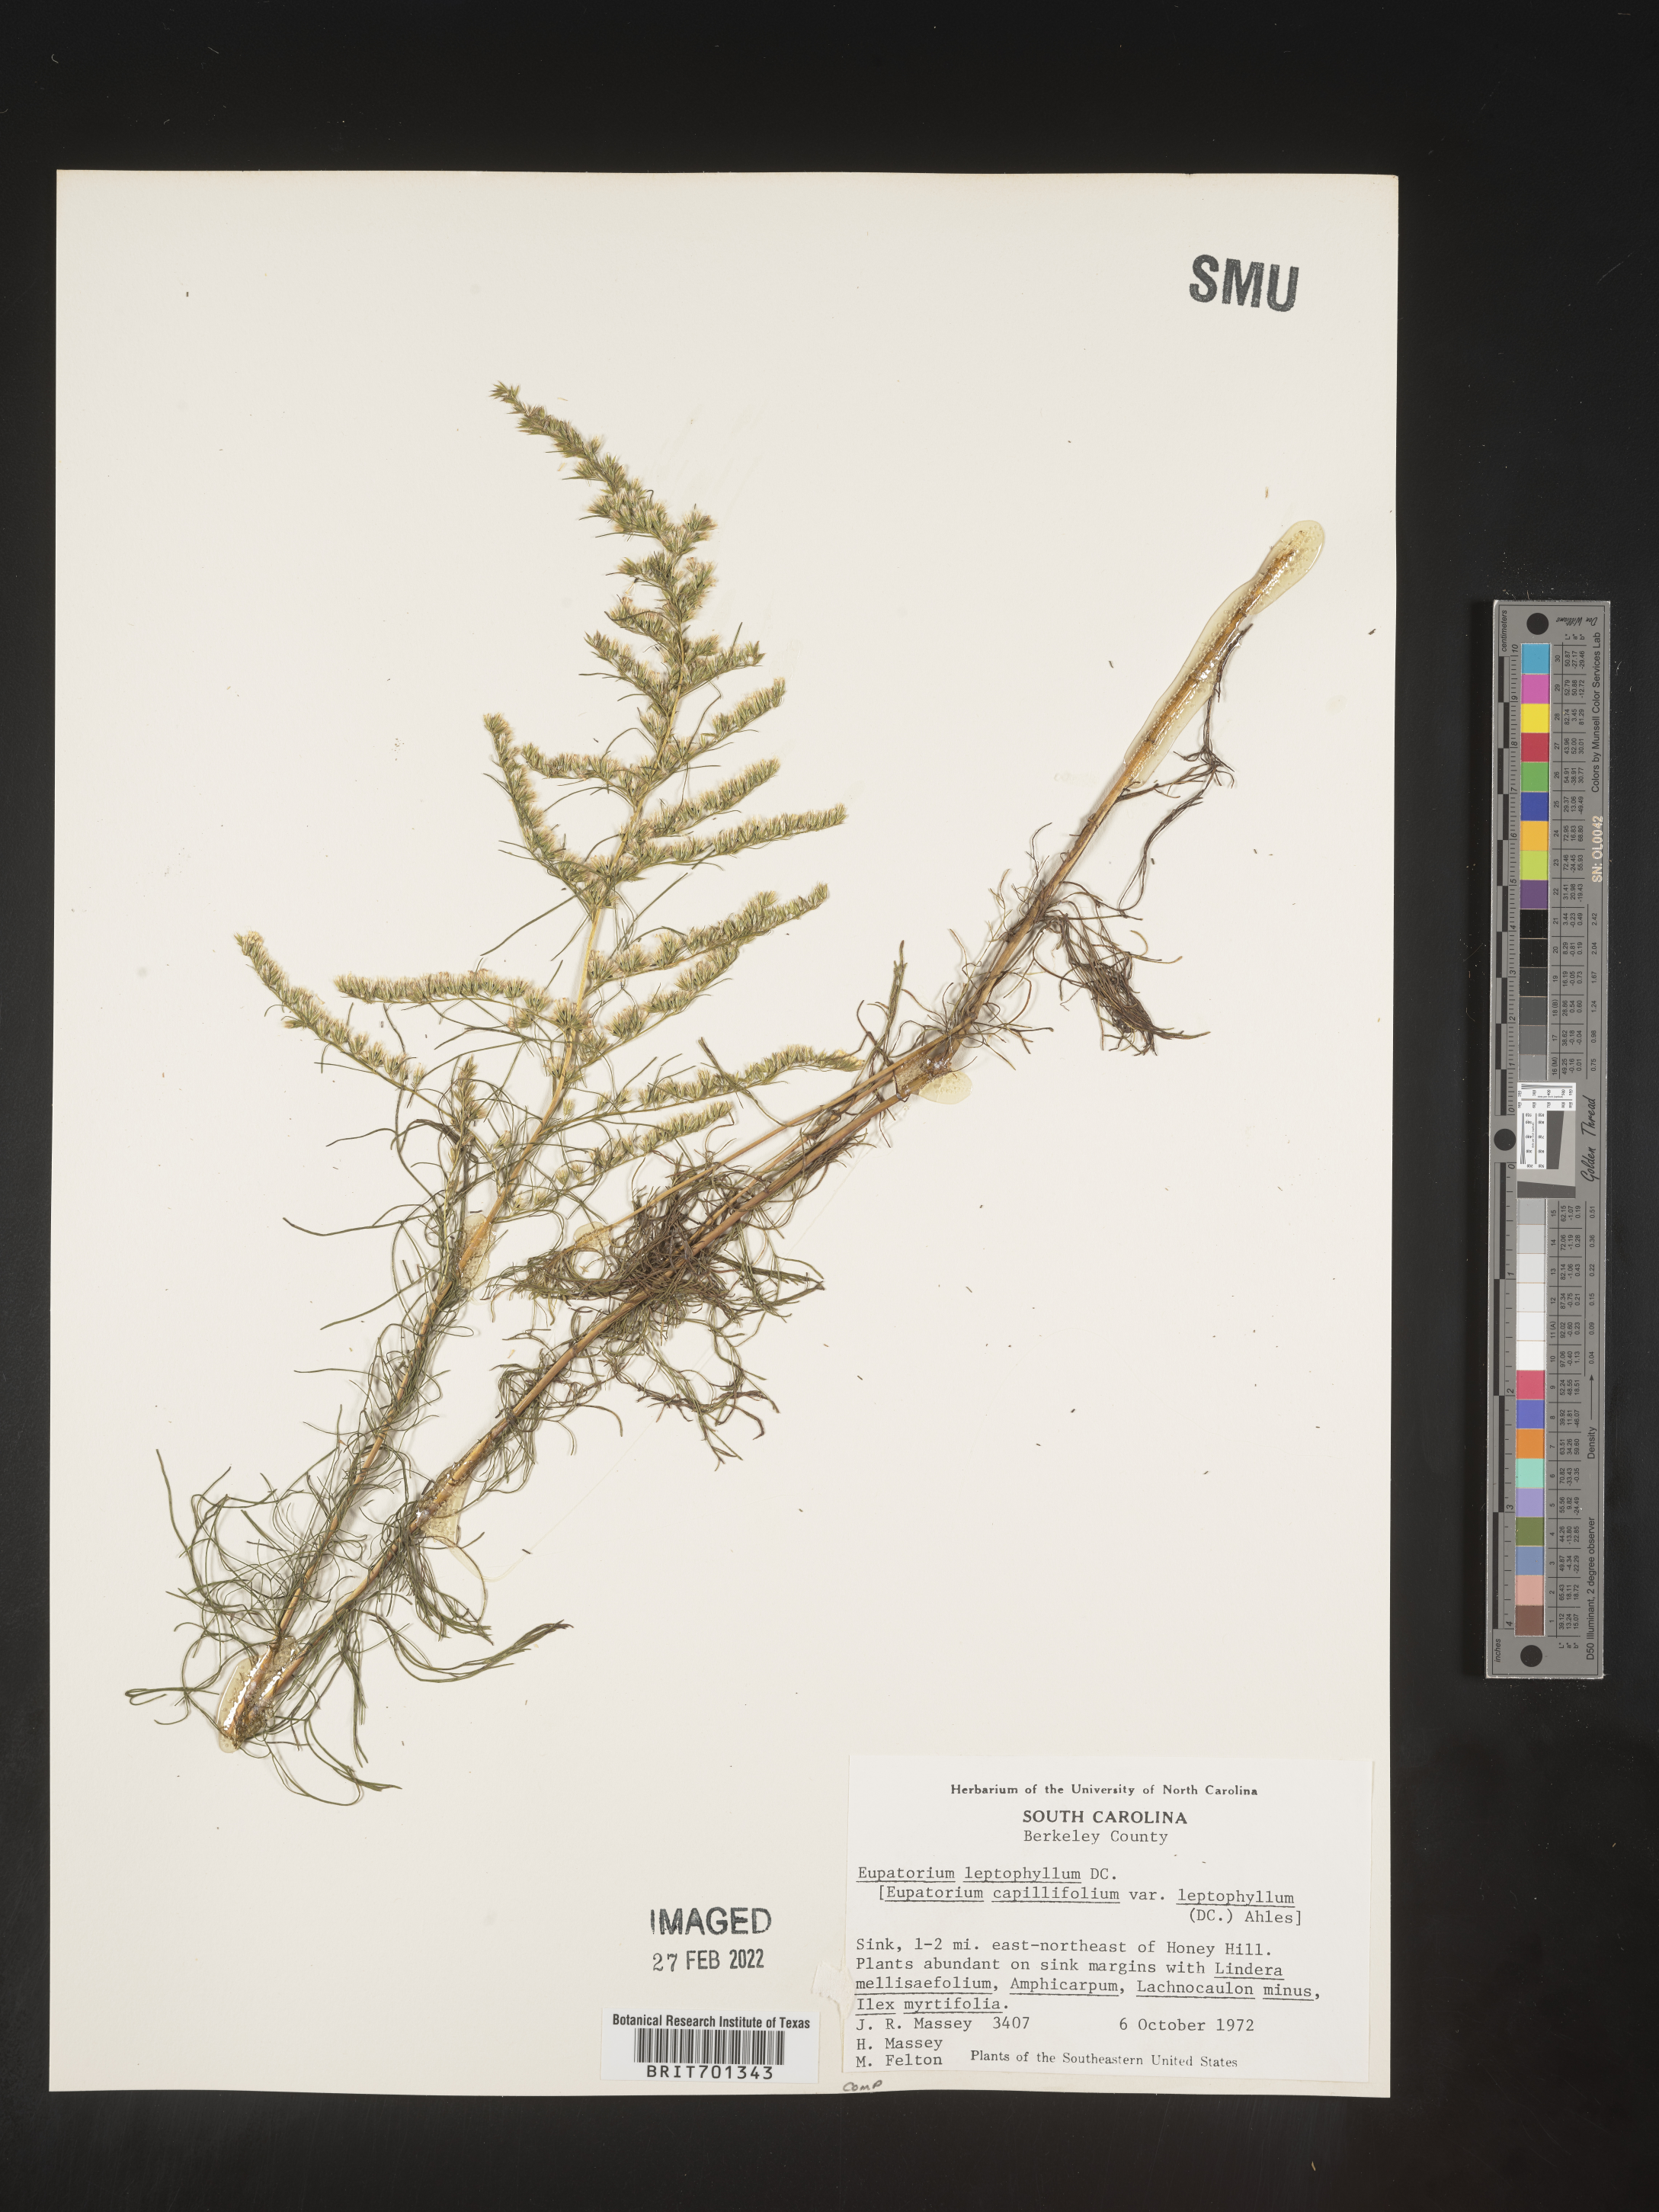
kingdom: Plantae
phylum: Tracheophyta
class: Magnoliopsida
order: Asterales
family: Asteraceae
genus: Eupatorium
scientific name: Eupatorium leptophyllum
